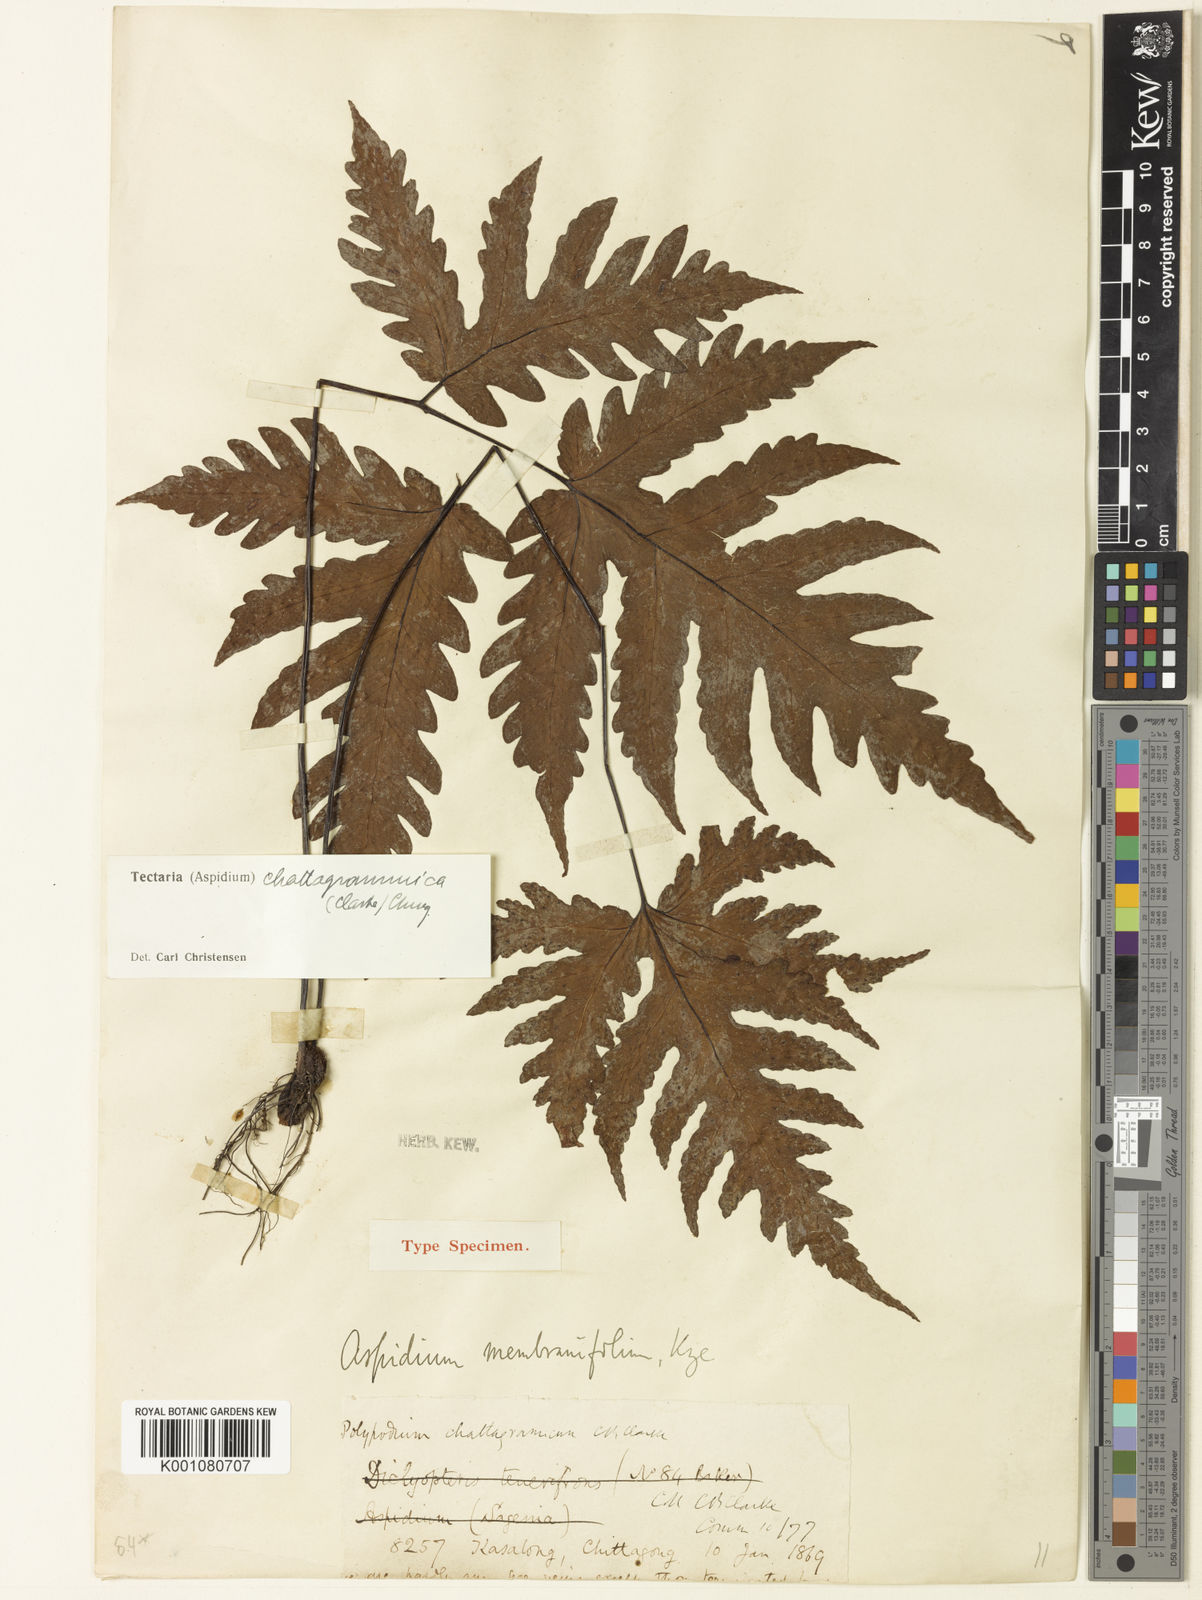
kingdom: Plantae
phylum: Tracheophyta
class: Polypodiopsida
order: Polypodiales
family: Tectariaceae
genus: Tectaria
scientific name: Tectaria chattagrammica
